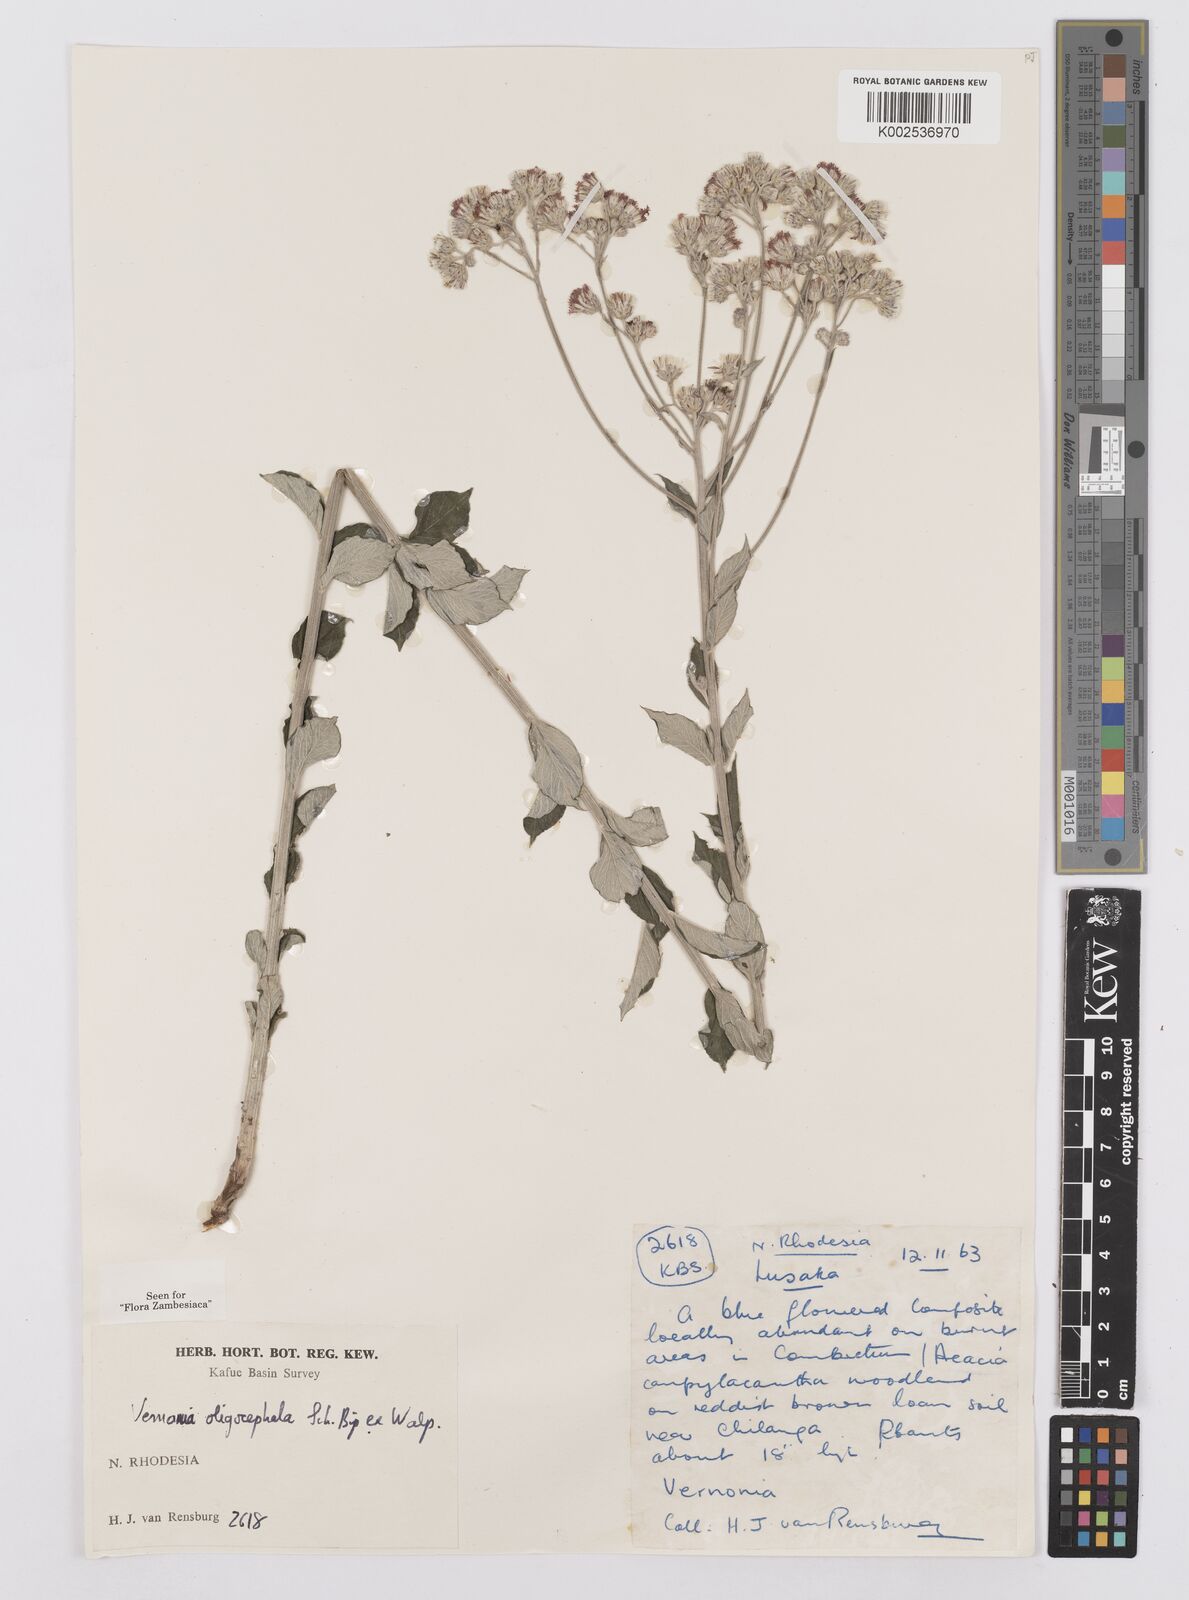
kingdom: Plantae
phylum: Tracheophyta
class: Magnoliopsida
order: Asterales
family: Asteraceae
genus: Hilliardiella
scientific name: Hilliardiella oligocephala
